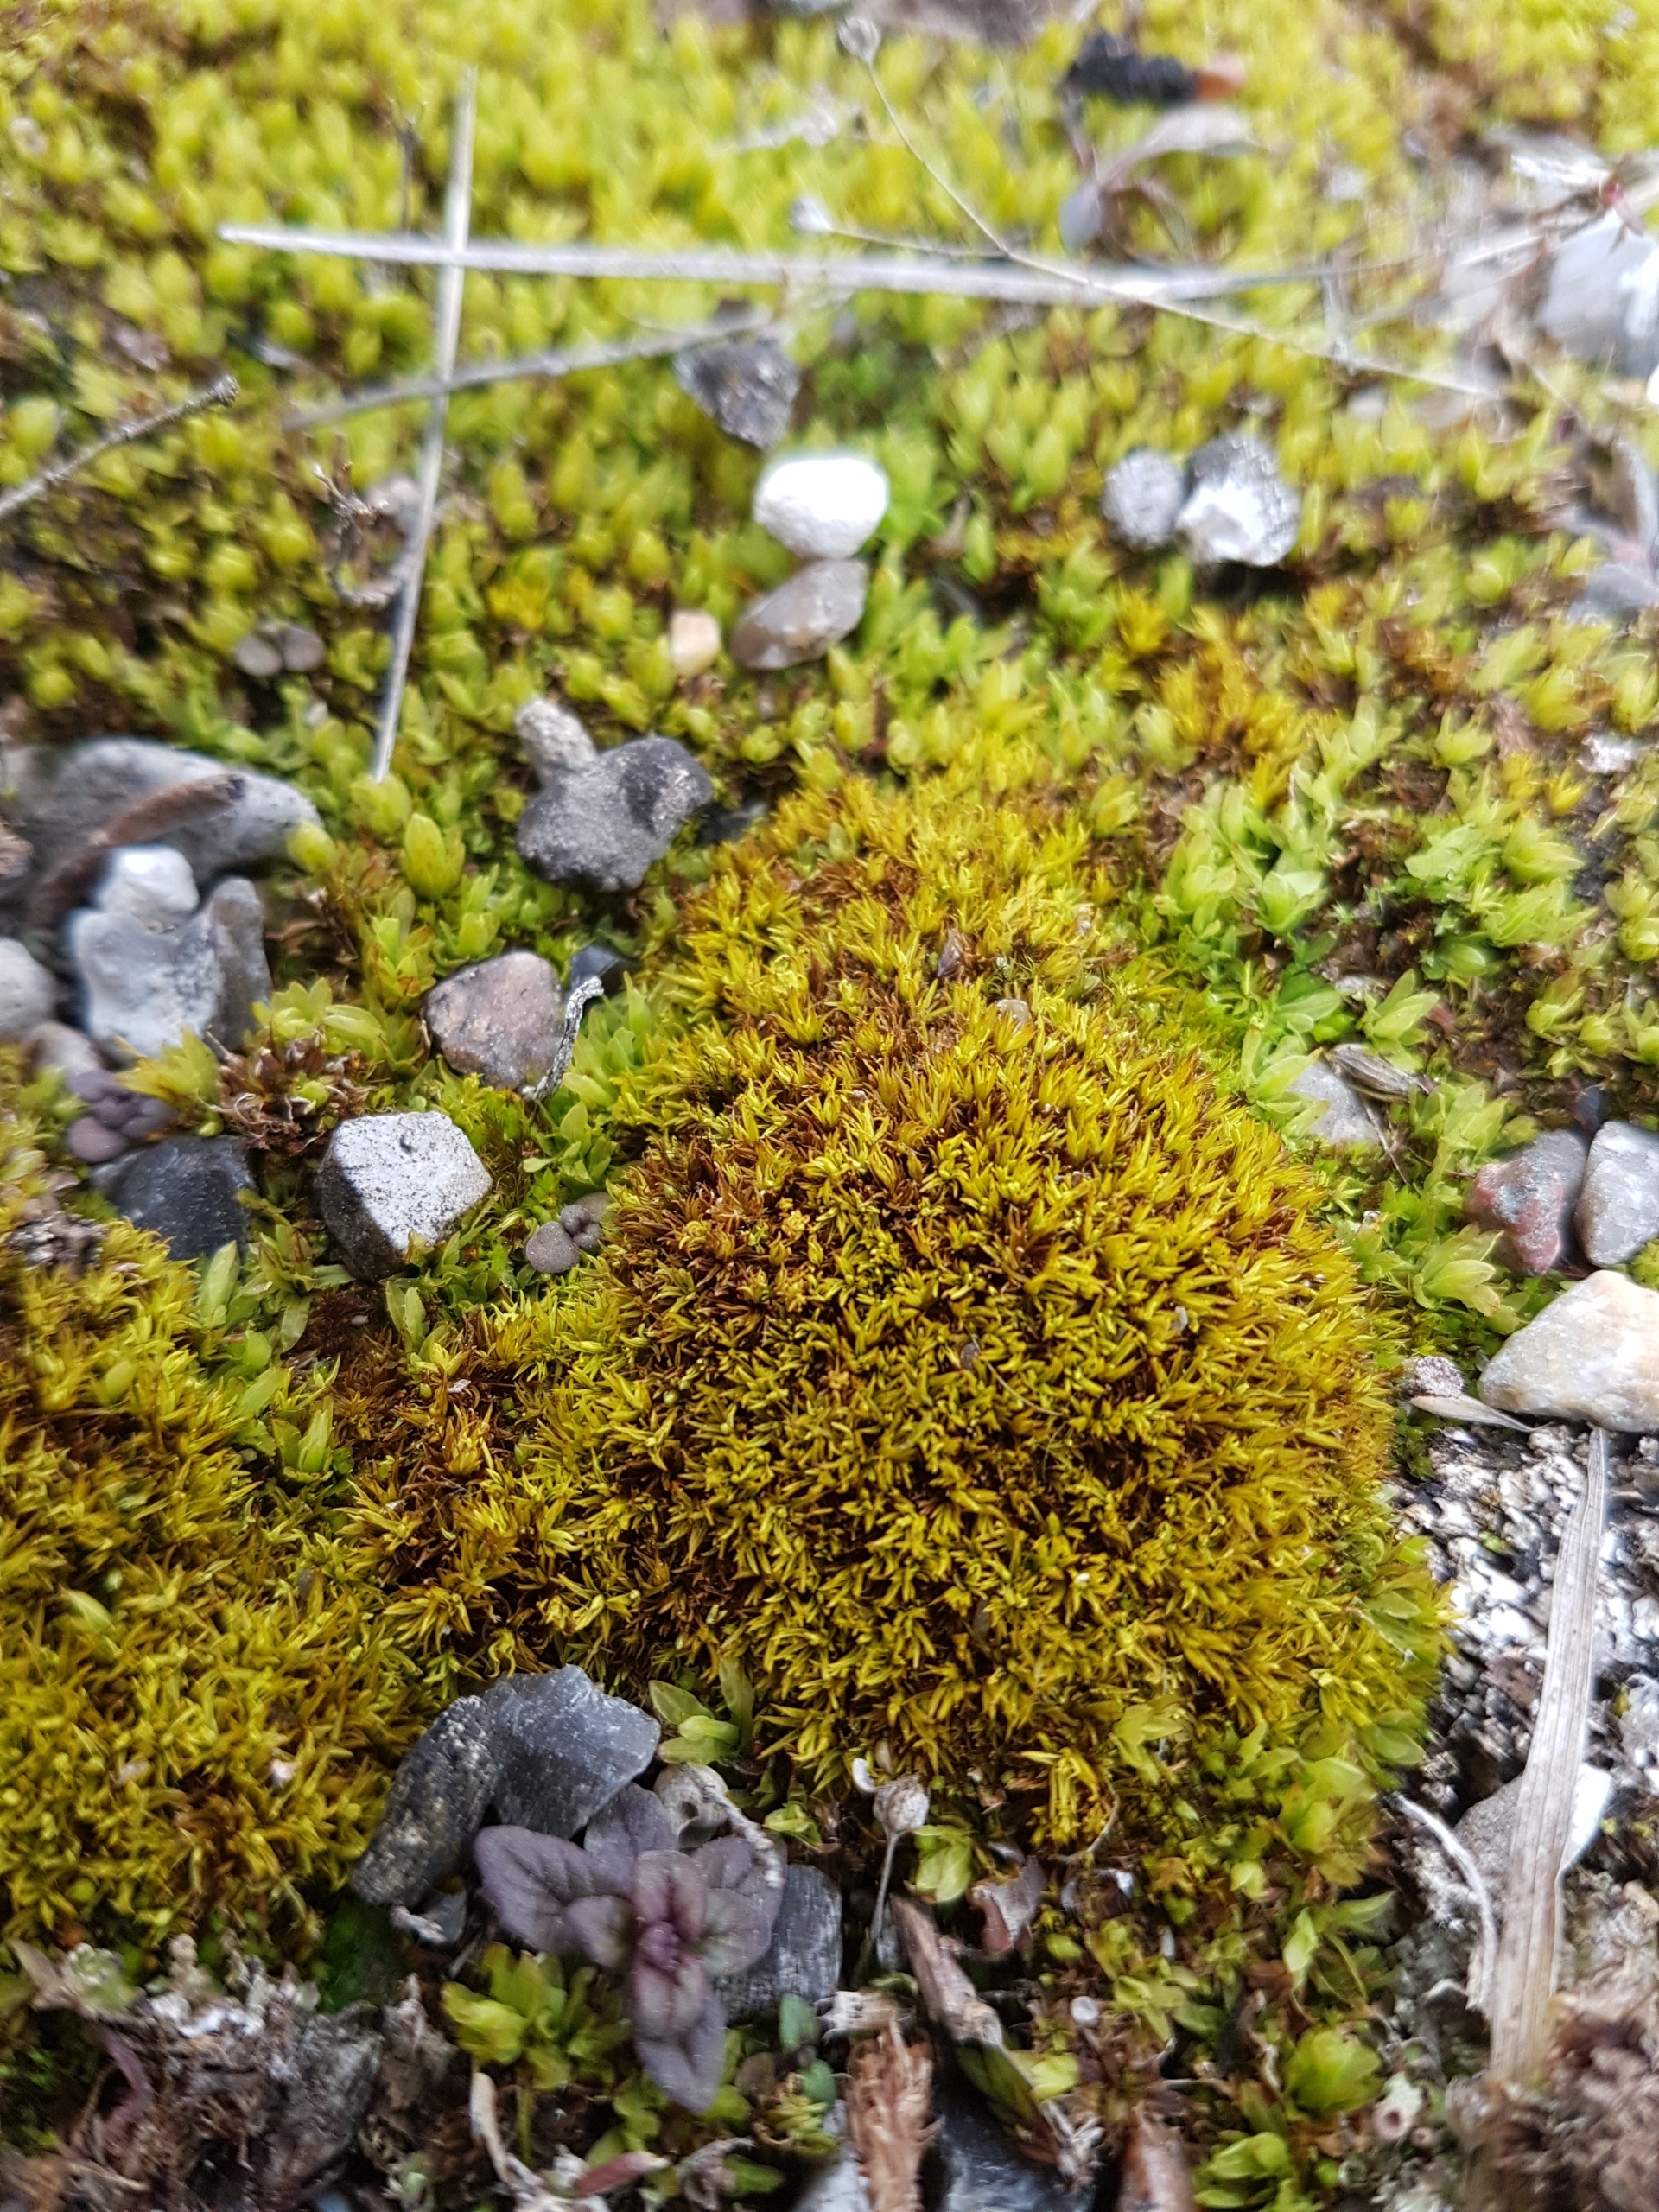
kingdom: Plantae
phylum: Bryophyta
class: Bryopsida
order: Pottiales
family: Pottiaceae
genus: Tortella
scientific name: Tortella inclinata
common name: Gul snoblad
